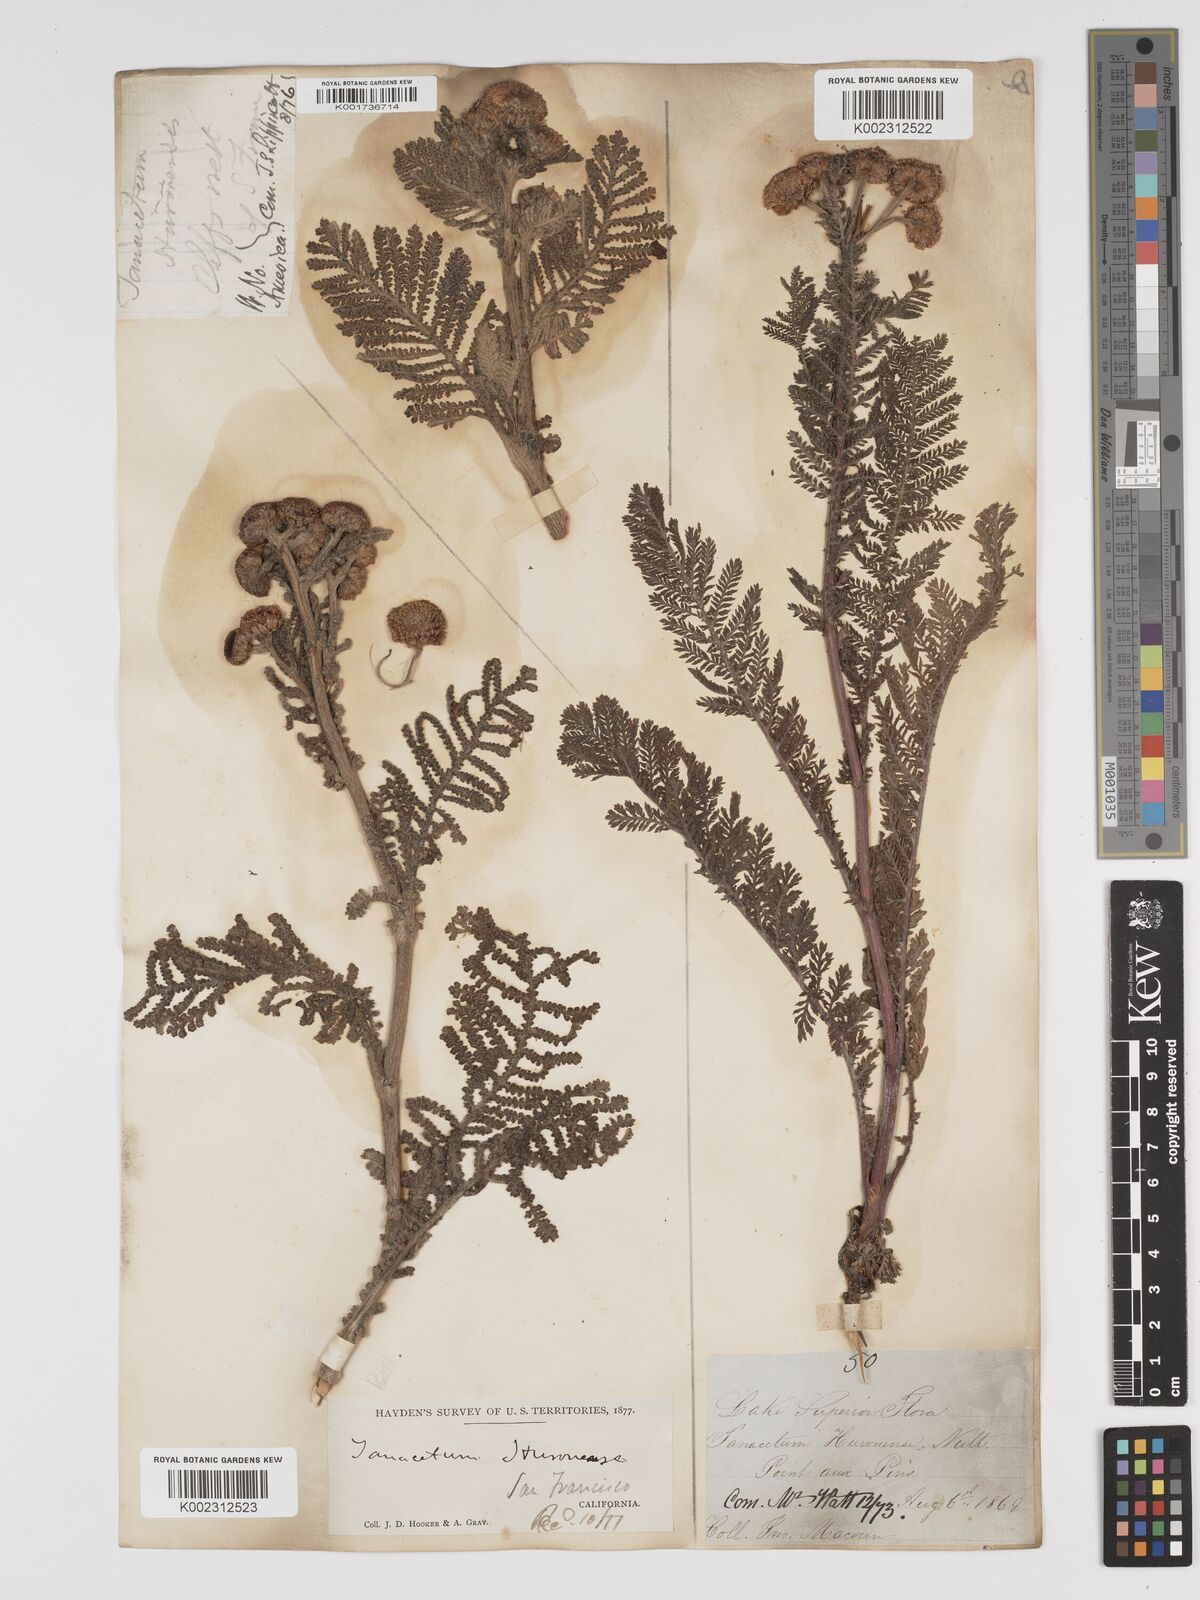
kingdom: Plantae
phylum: Tracheophyta
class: Magnoliopsida
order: Asterales
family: Asteraceae
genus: Tanacetum
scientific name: Tanacetum bipinnatum
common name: Dwarf tansy
